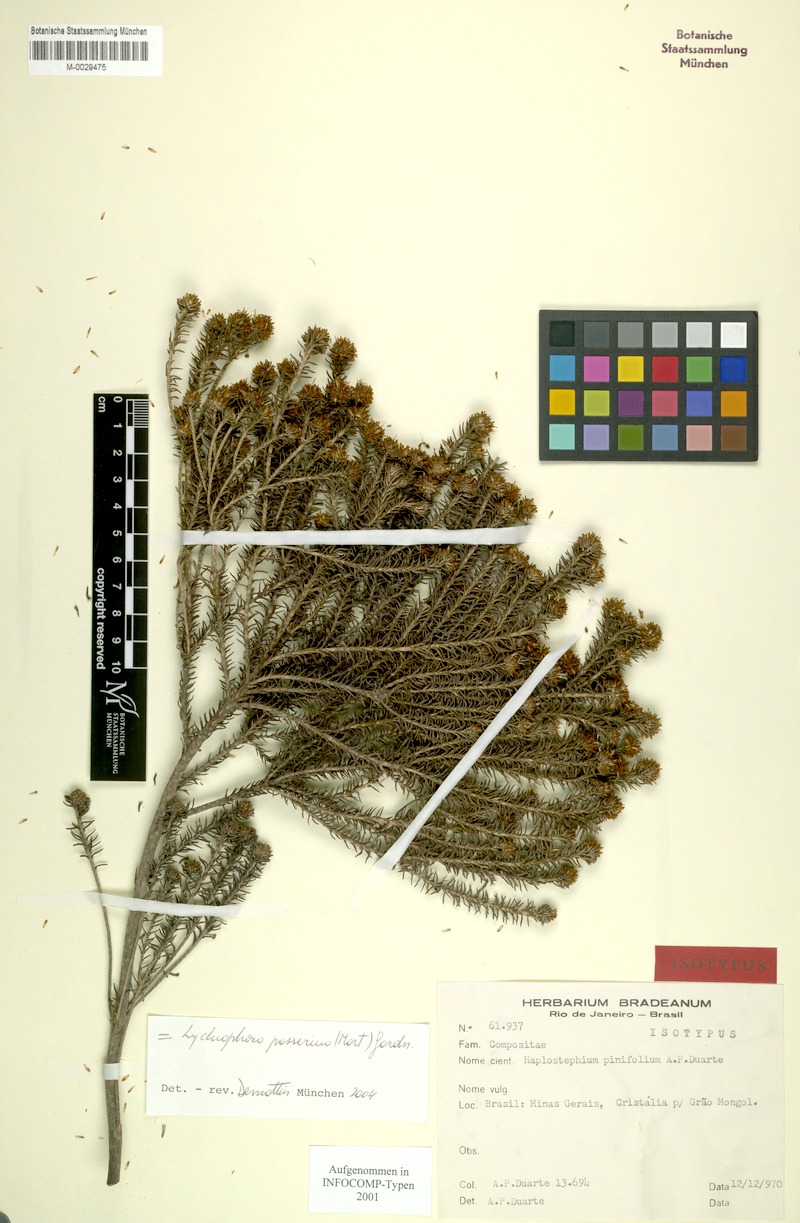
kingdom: Plantae
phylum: Tracheophyta
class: Magnoliopsida
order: Asterales
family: Asteraceae
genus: Lychnophora
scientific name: Lychnophora passerina
